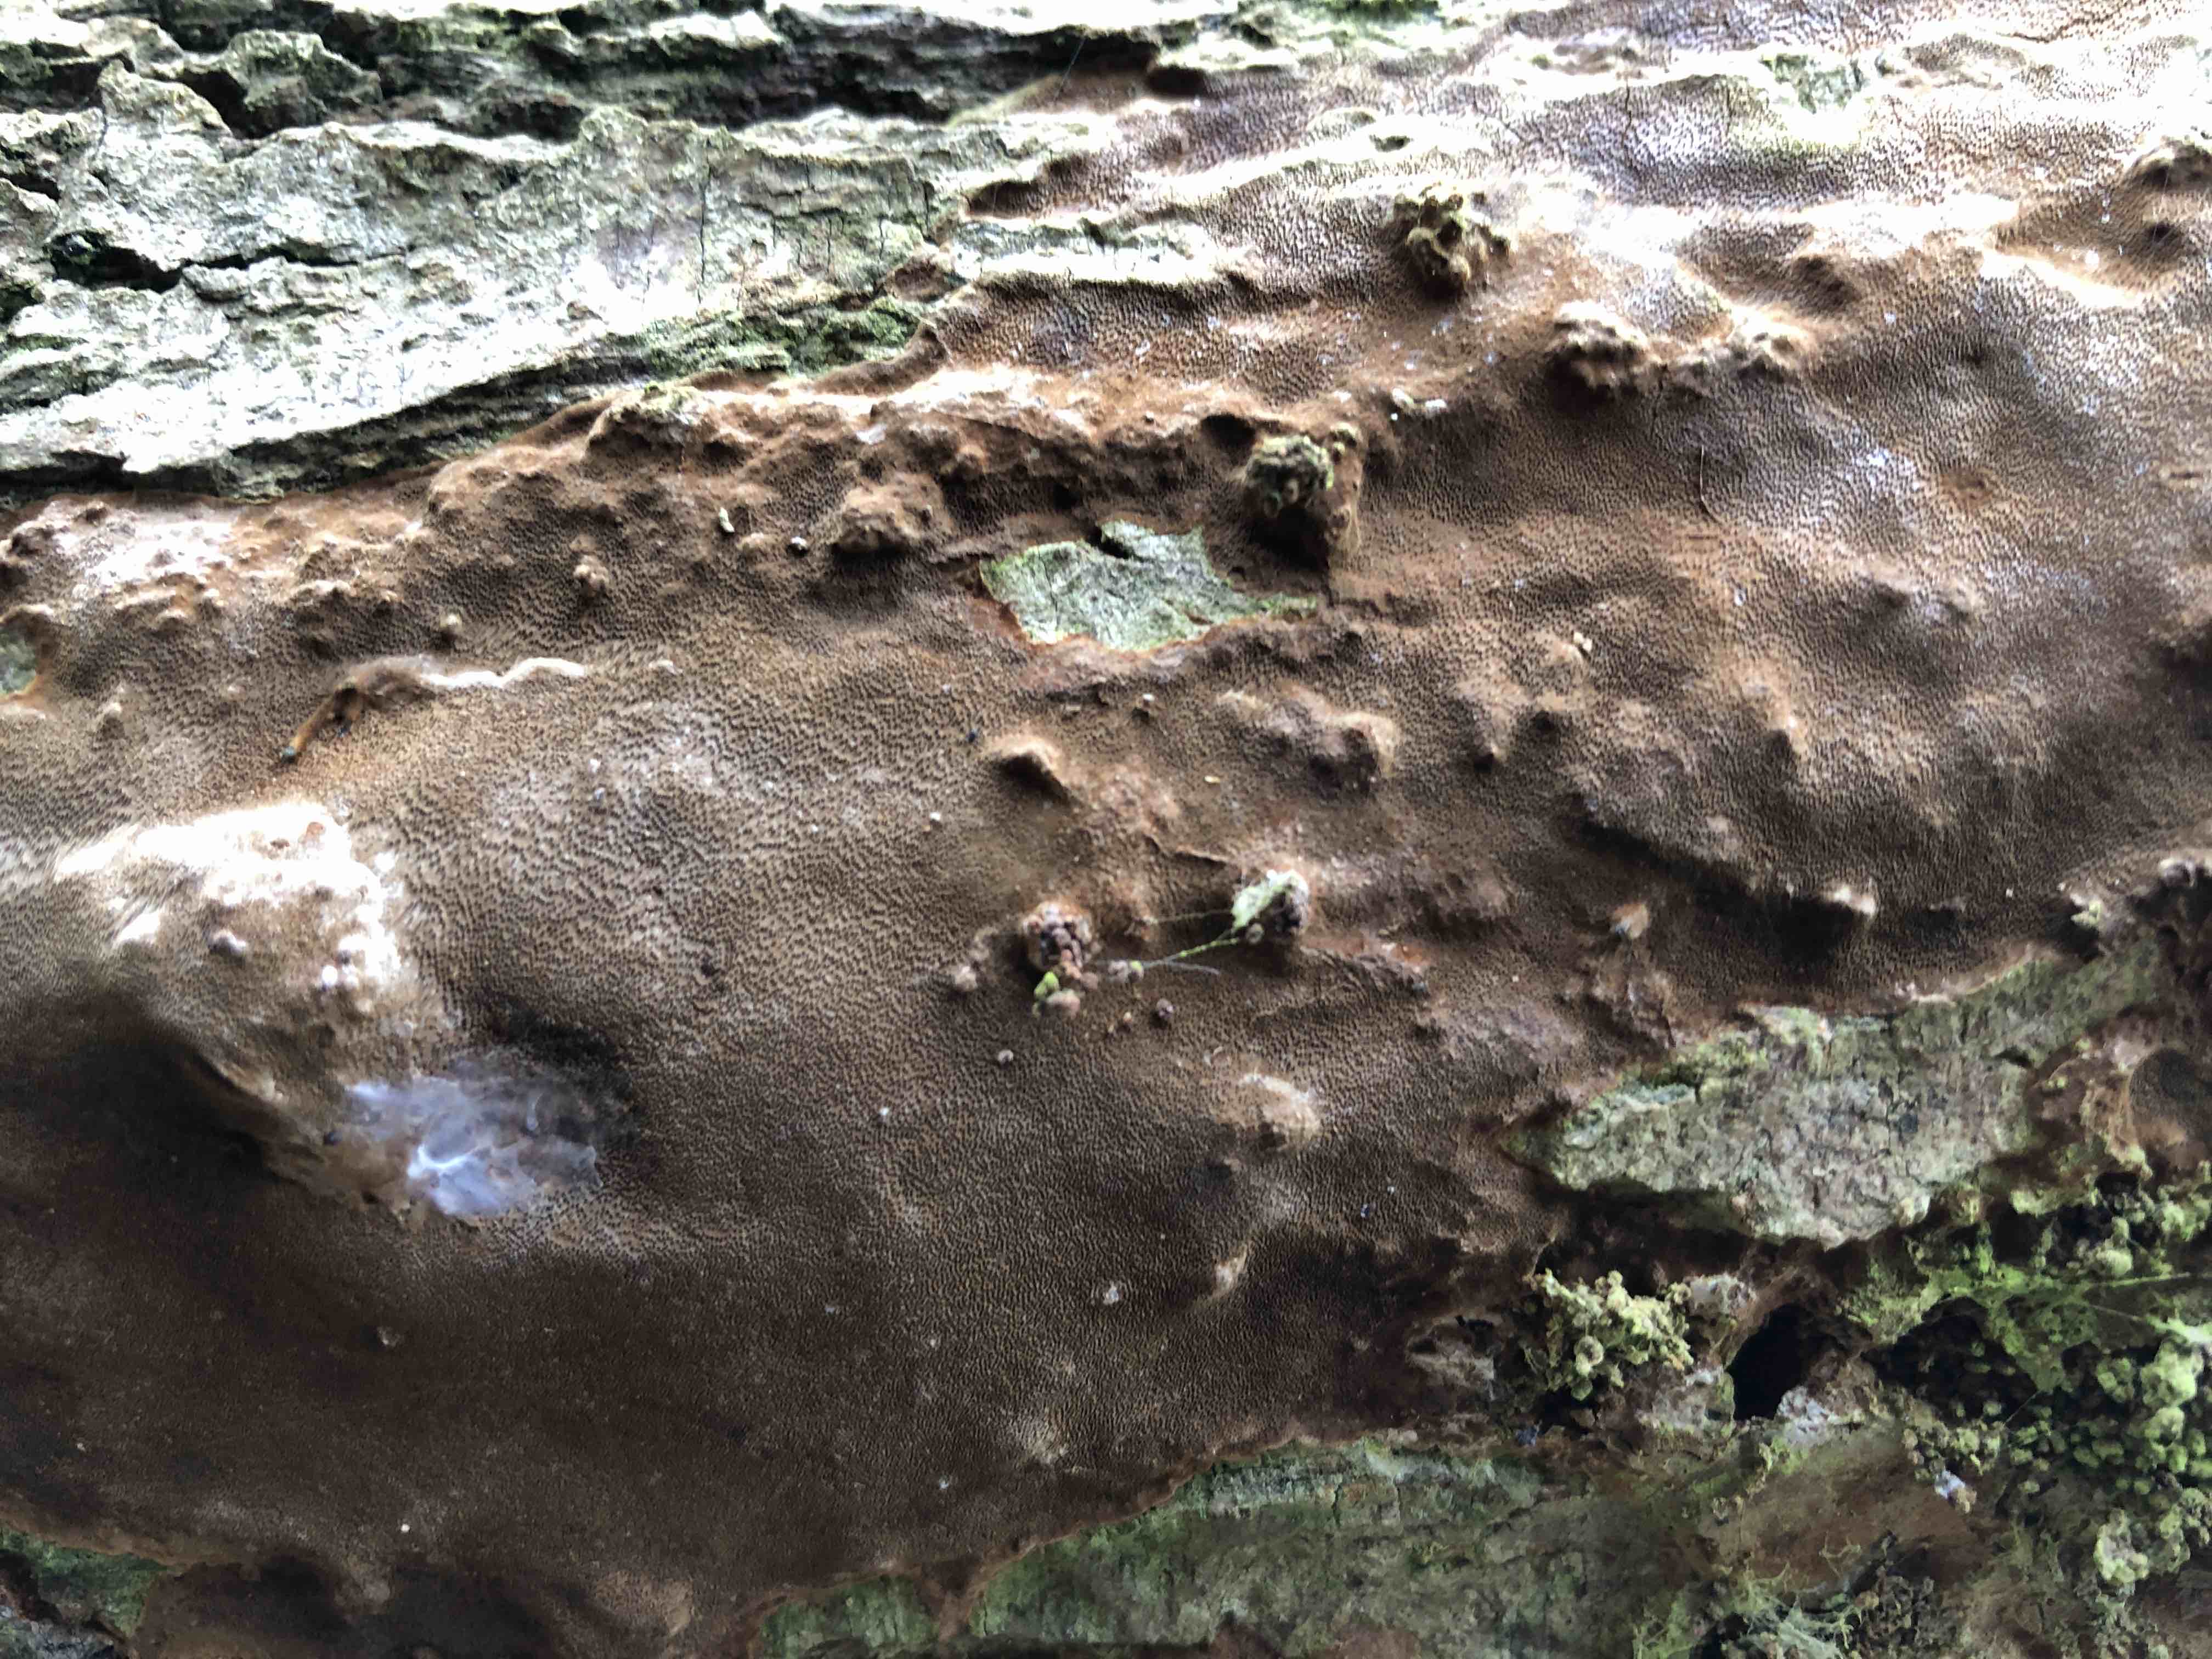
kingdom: Fungi
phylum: Basidiomycota
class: Agaricomycetes
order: Hymenochaetales
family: Hymenochaetaceae
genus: Fomitiporia
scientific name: Fomitiporia punctata
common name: pude-ildporesvamp
